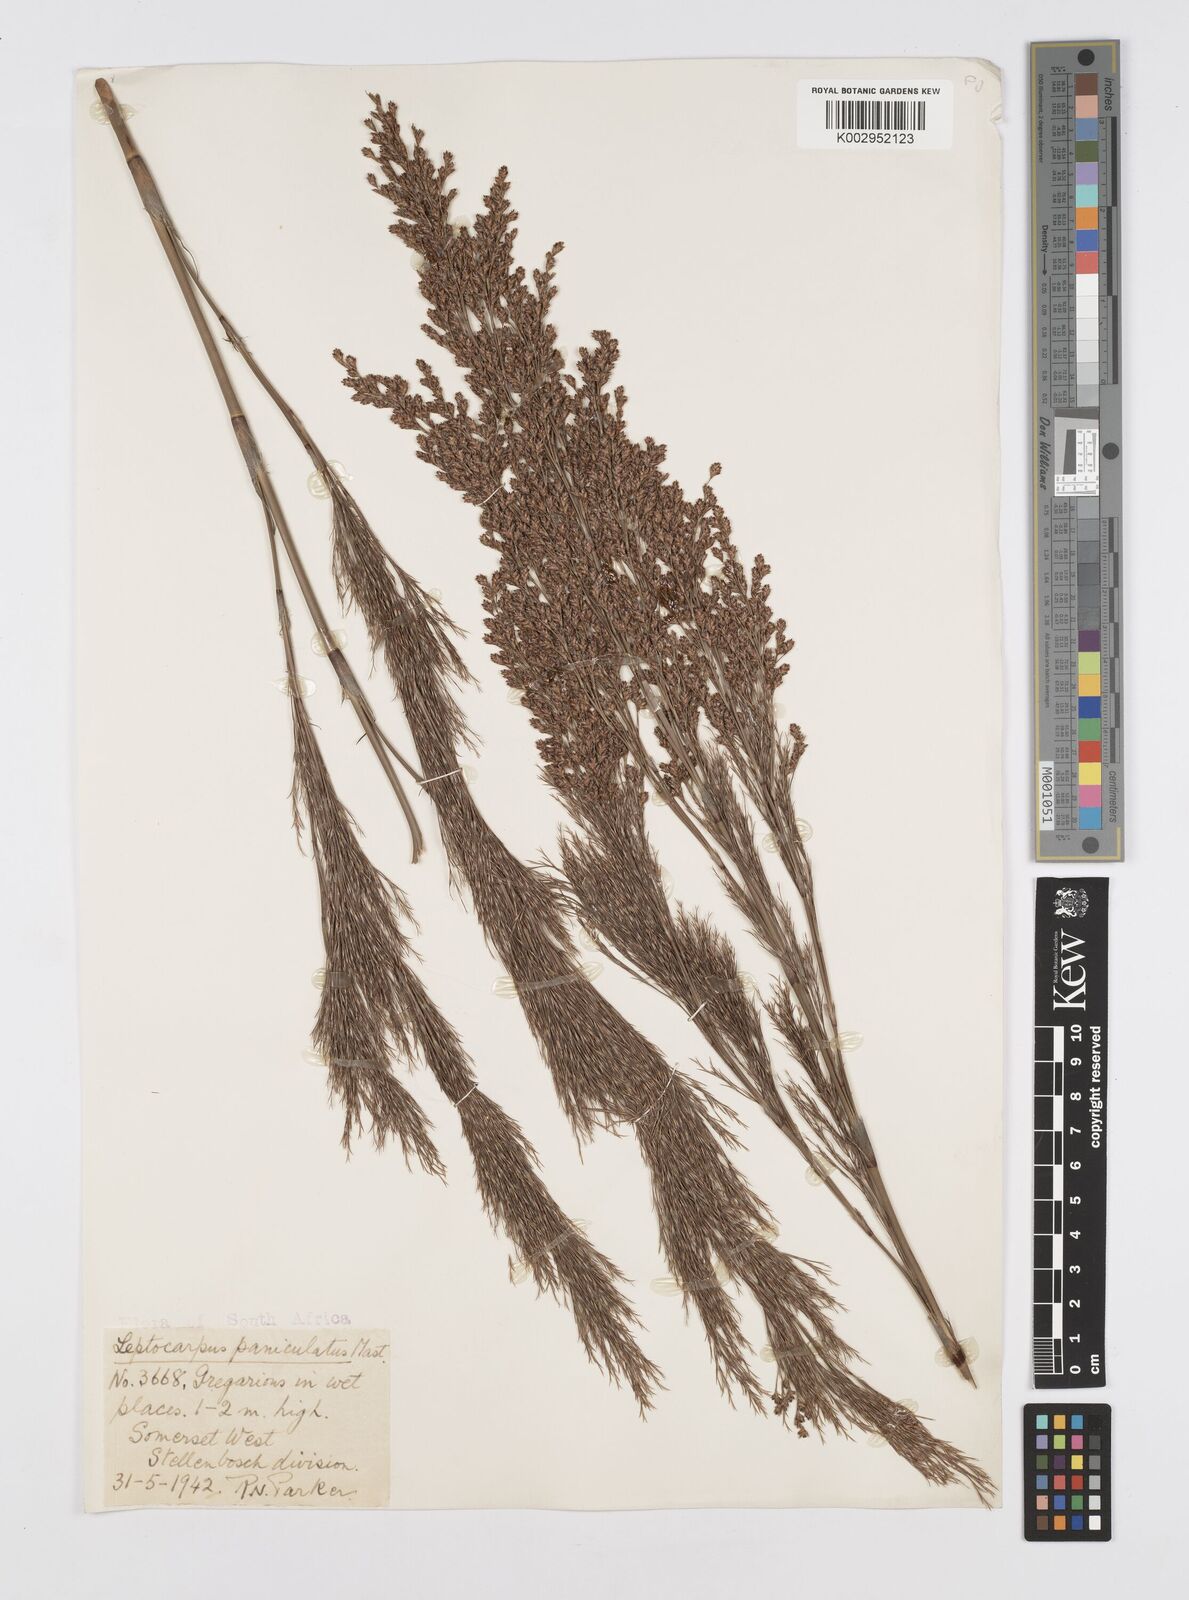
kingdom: Plantae
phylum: Tracheophyta
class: Liliopsida
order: Poales
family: Restionaceae
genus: Restio
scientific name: Restio
